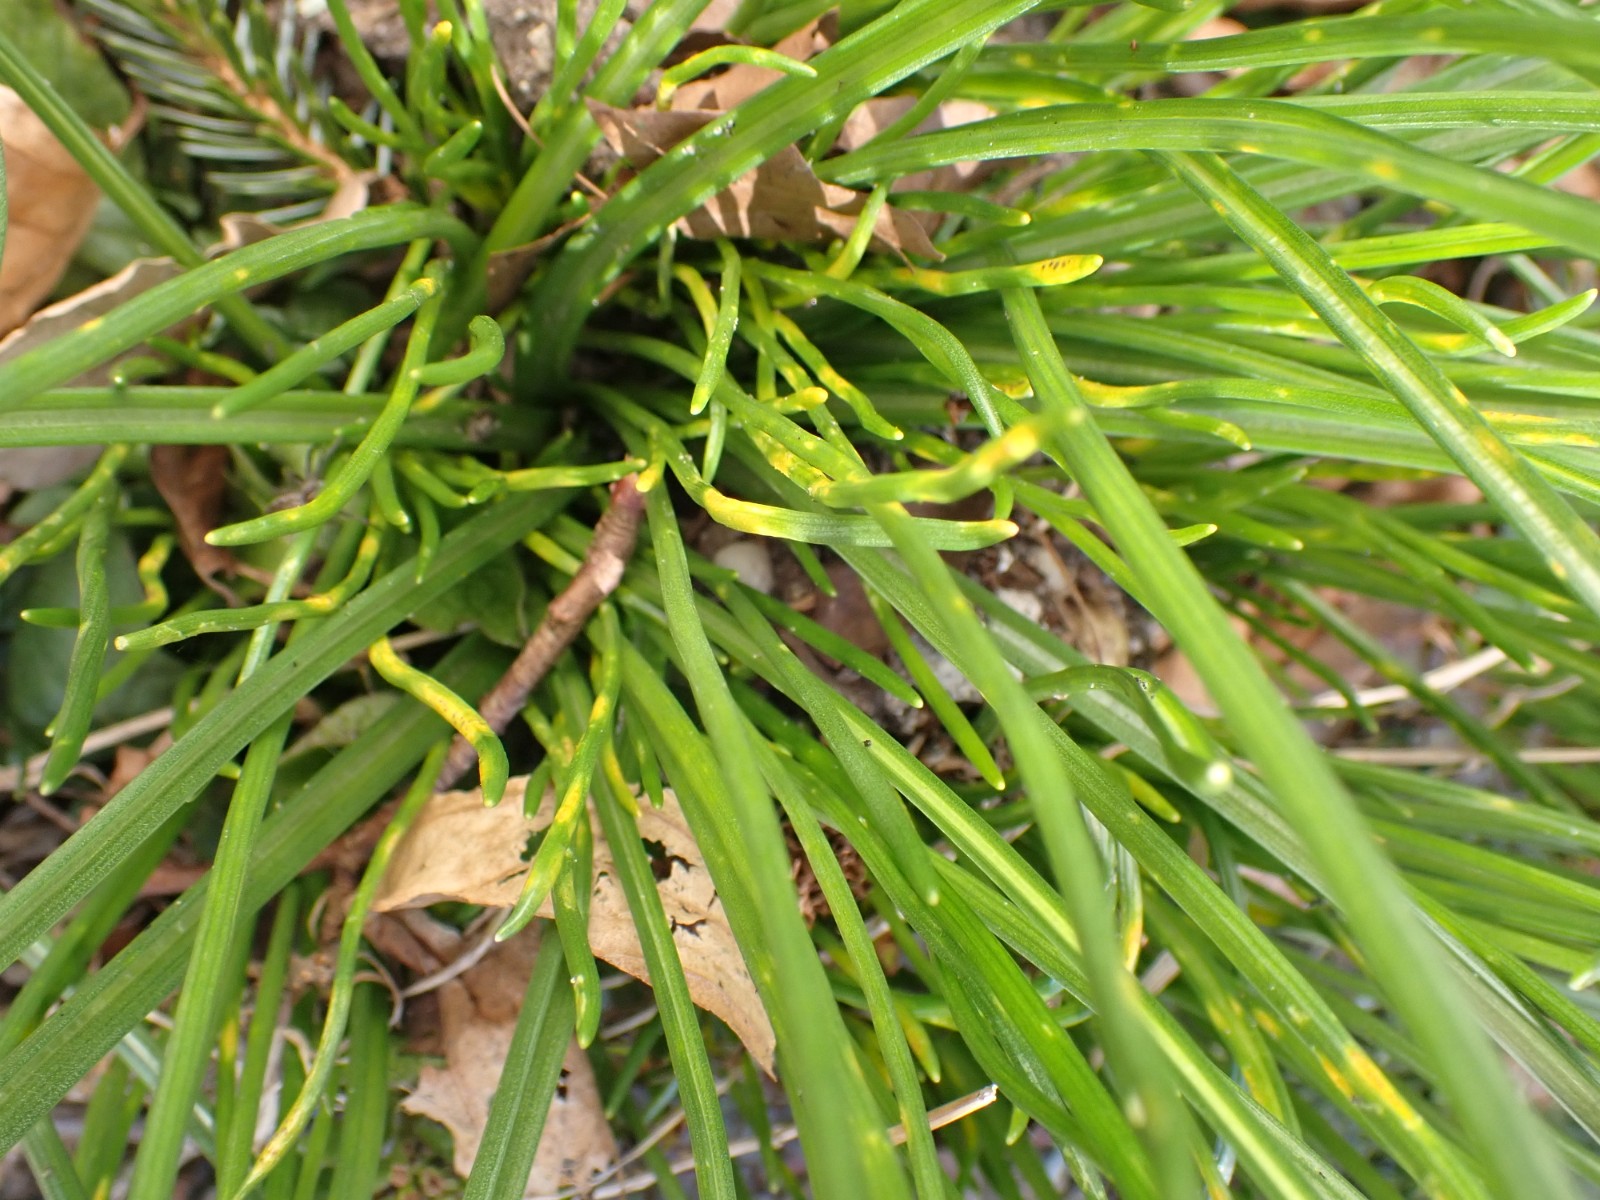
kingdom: Fungi
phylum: Basidiomycota
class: Pucciniomycetes
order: Pucciniales
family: Pucciniaceae
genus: Puccinia
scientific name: Puccinia
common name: tvecellerust
